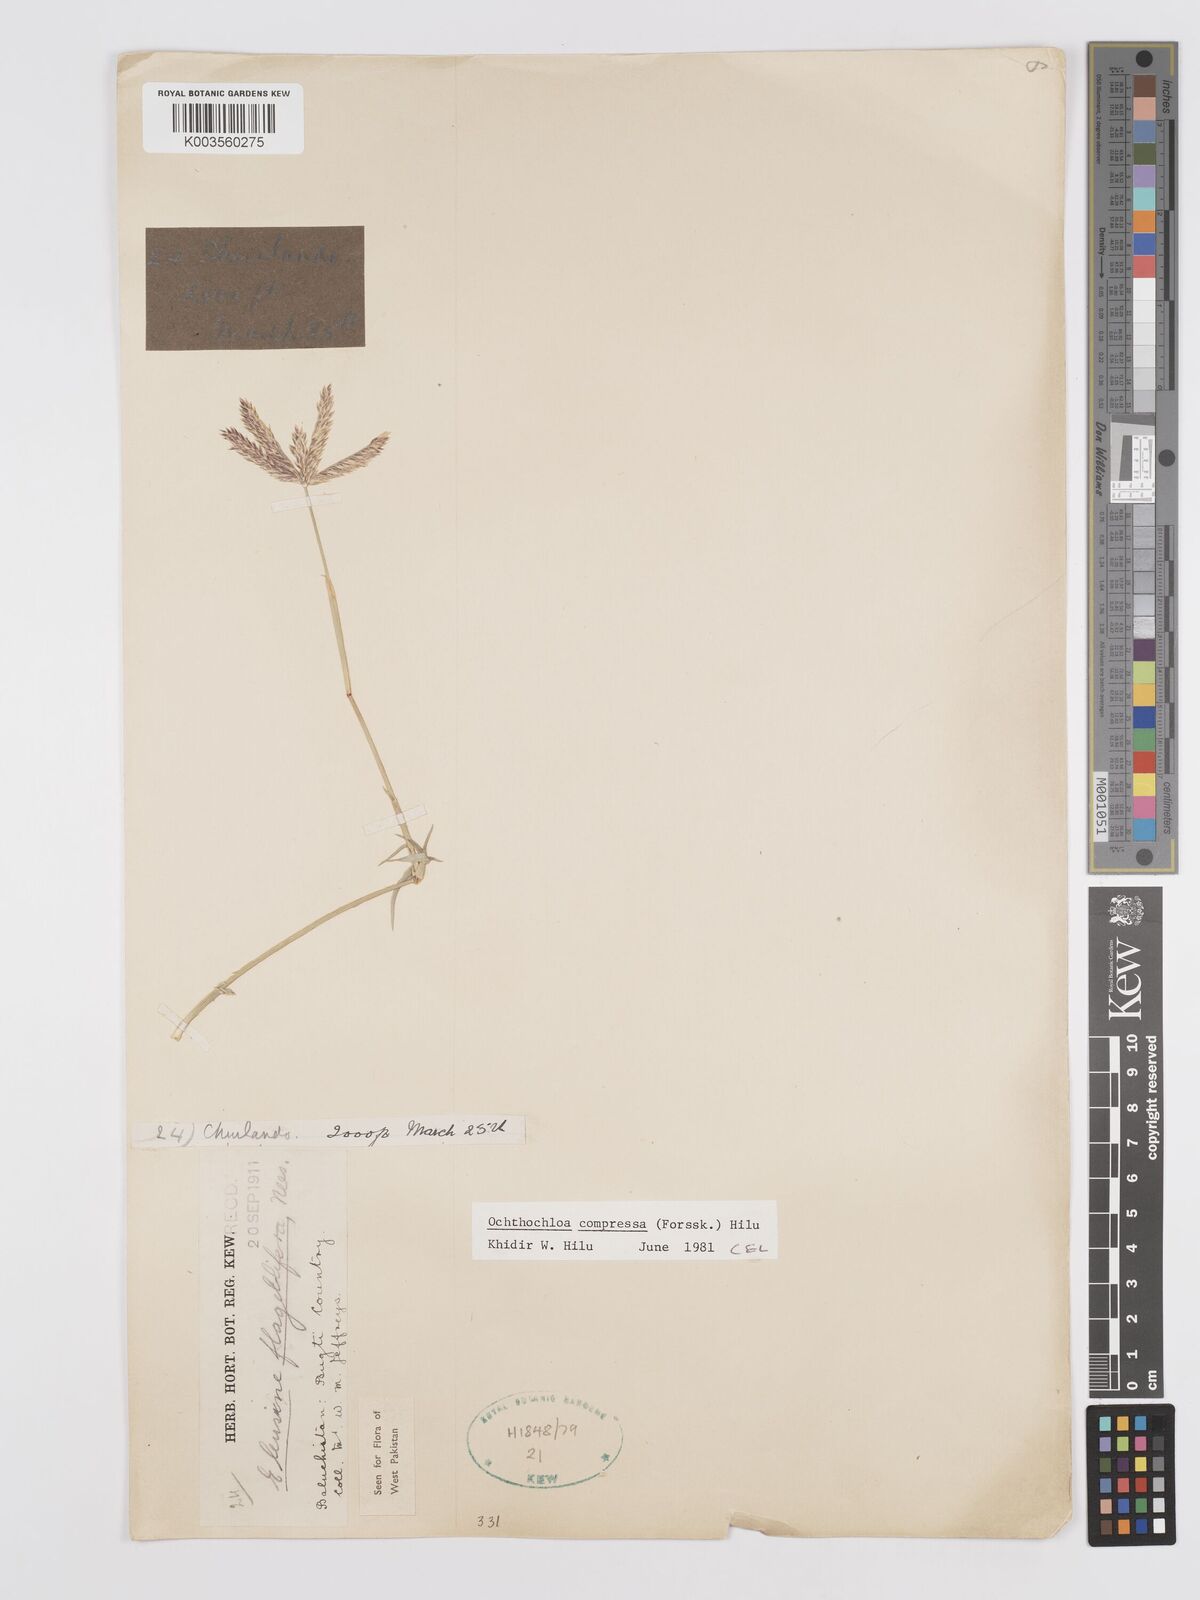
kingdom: Plantae
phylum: Tracheophyta
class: Liliopsida
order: Poales
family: Poaceae
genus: Chloris
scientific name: Chloris flagellifera
